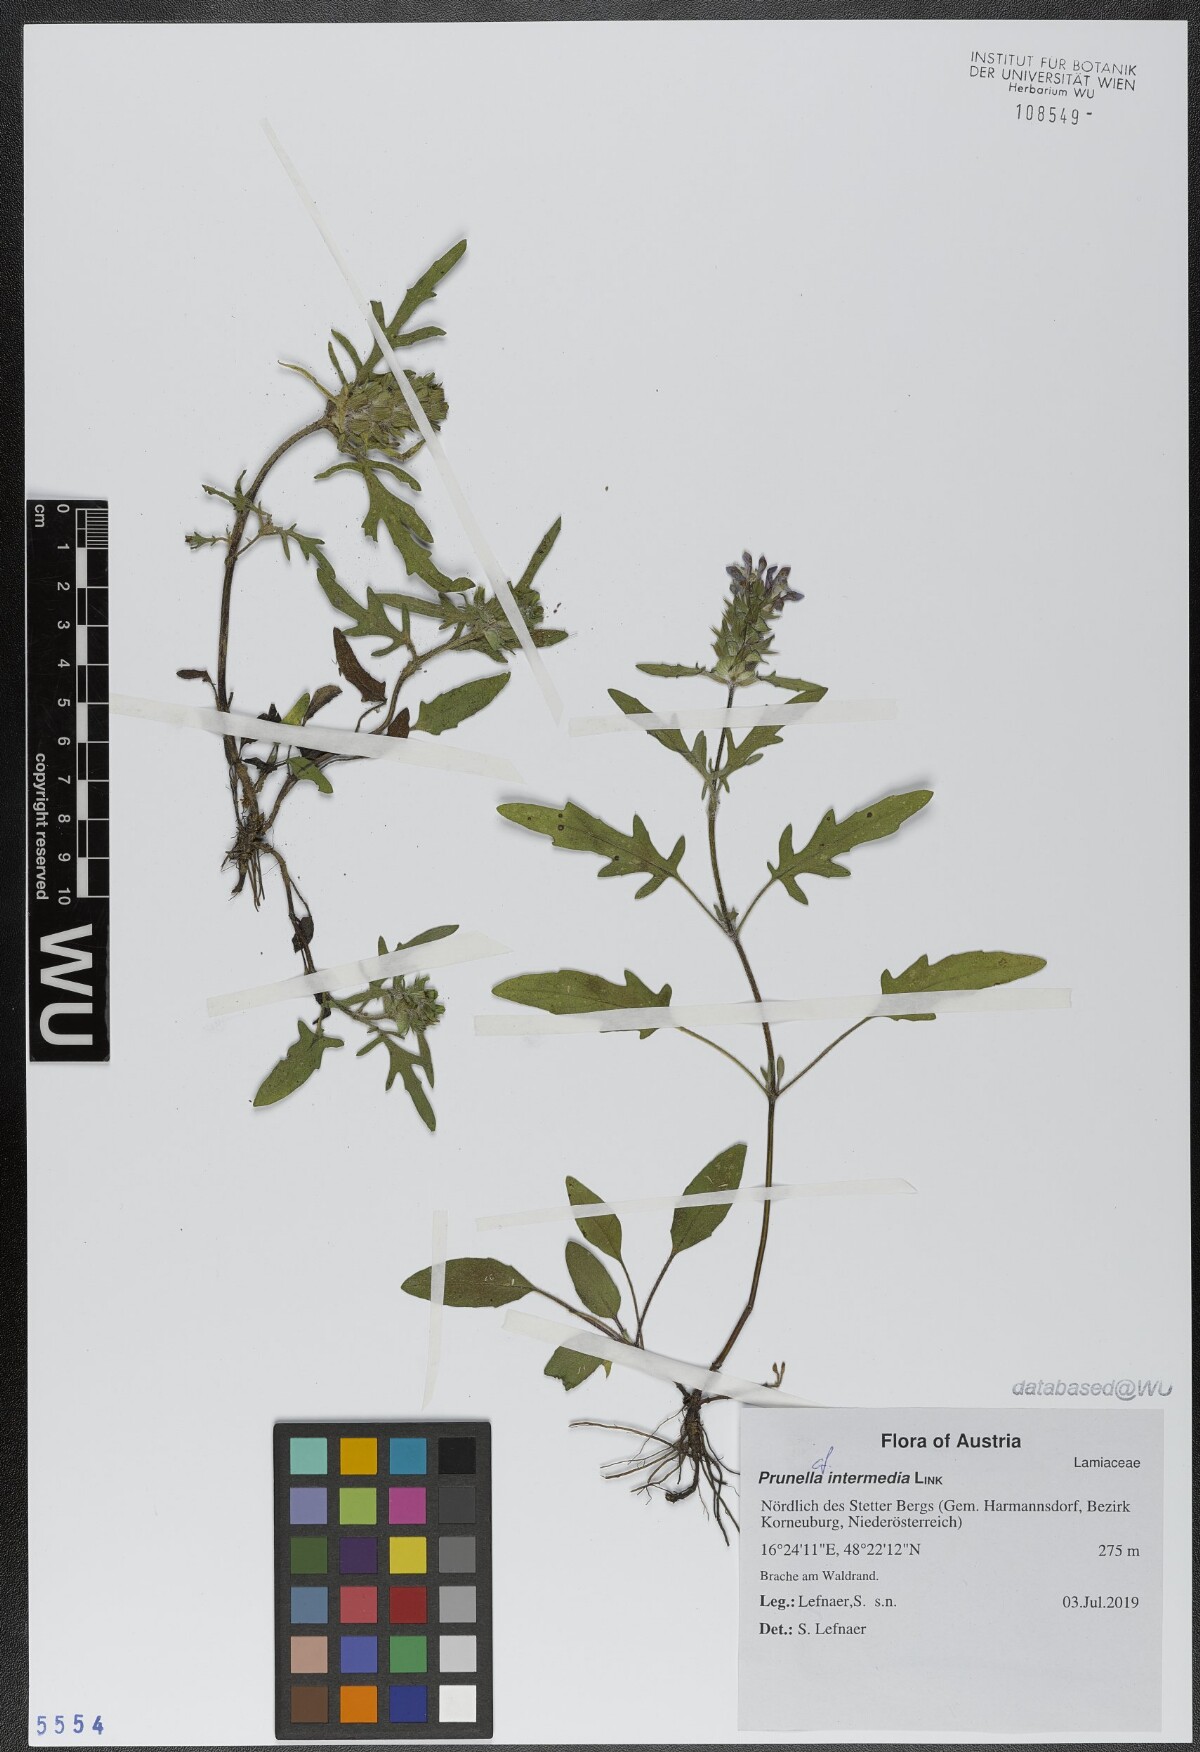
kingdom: Plantae
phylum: Tracheophyta
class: Magnoliopsida
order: Lamiales
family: Lamiaceae
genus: Prunella
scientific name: Prunella intermedia
